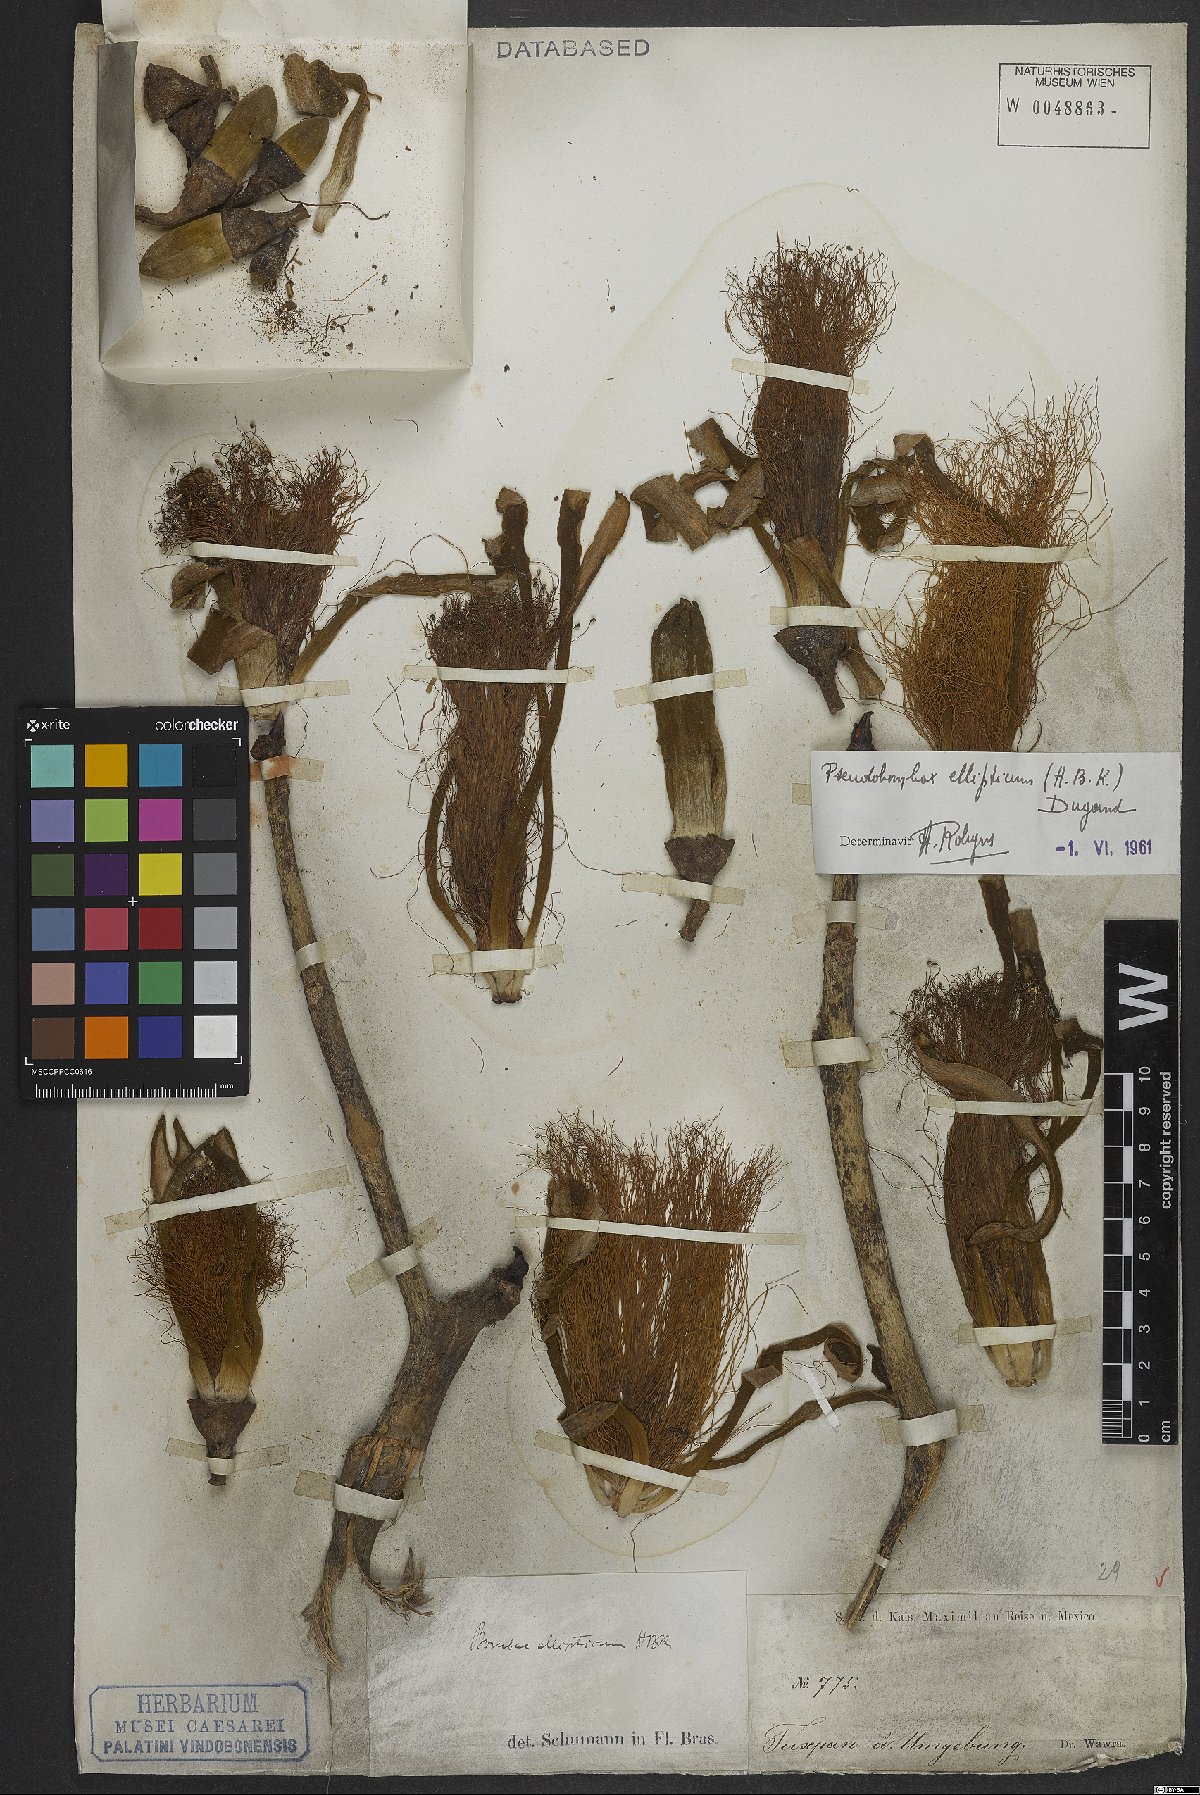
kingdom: Plantae
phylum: Tracheophyta
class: Magnoliopsida
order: Malvales
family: Malvaceae
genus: Pseudobombax
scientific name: Pseudobombax ellipticum
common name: Shaving-brush-tree
